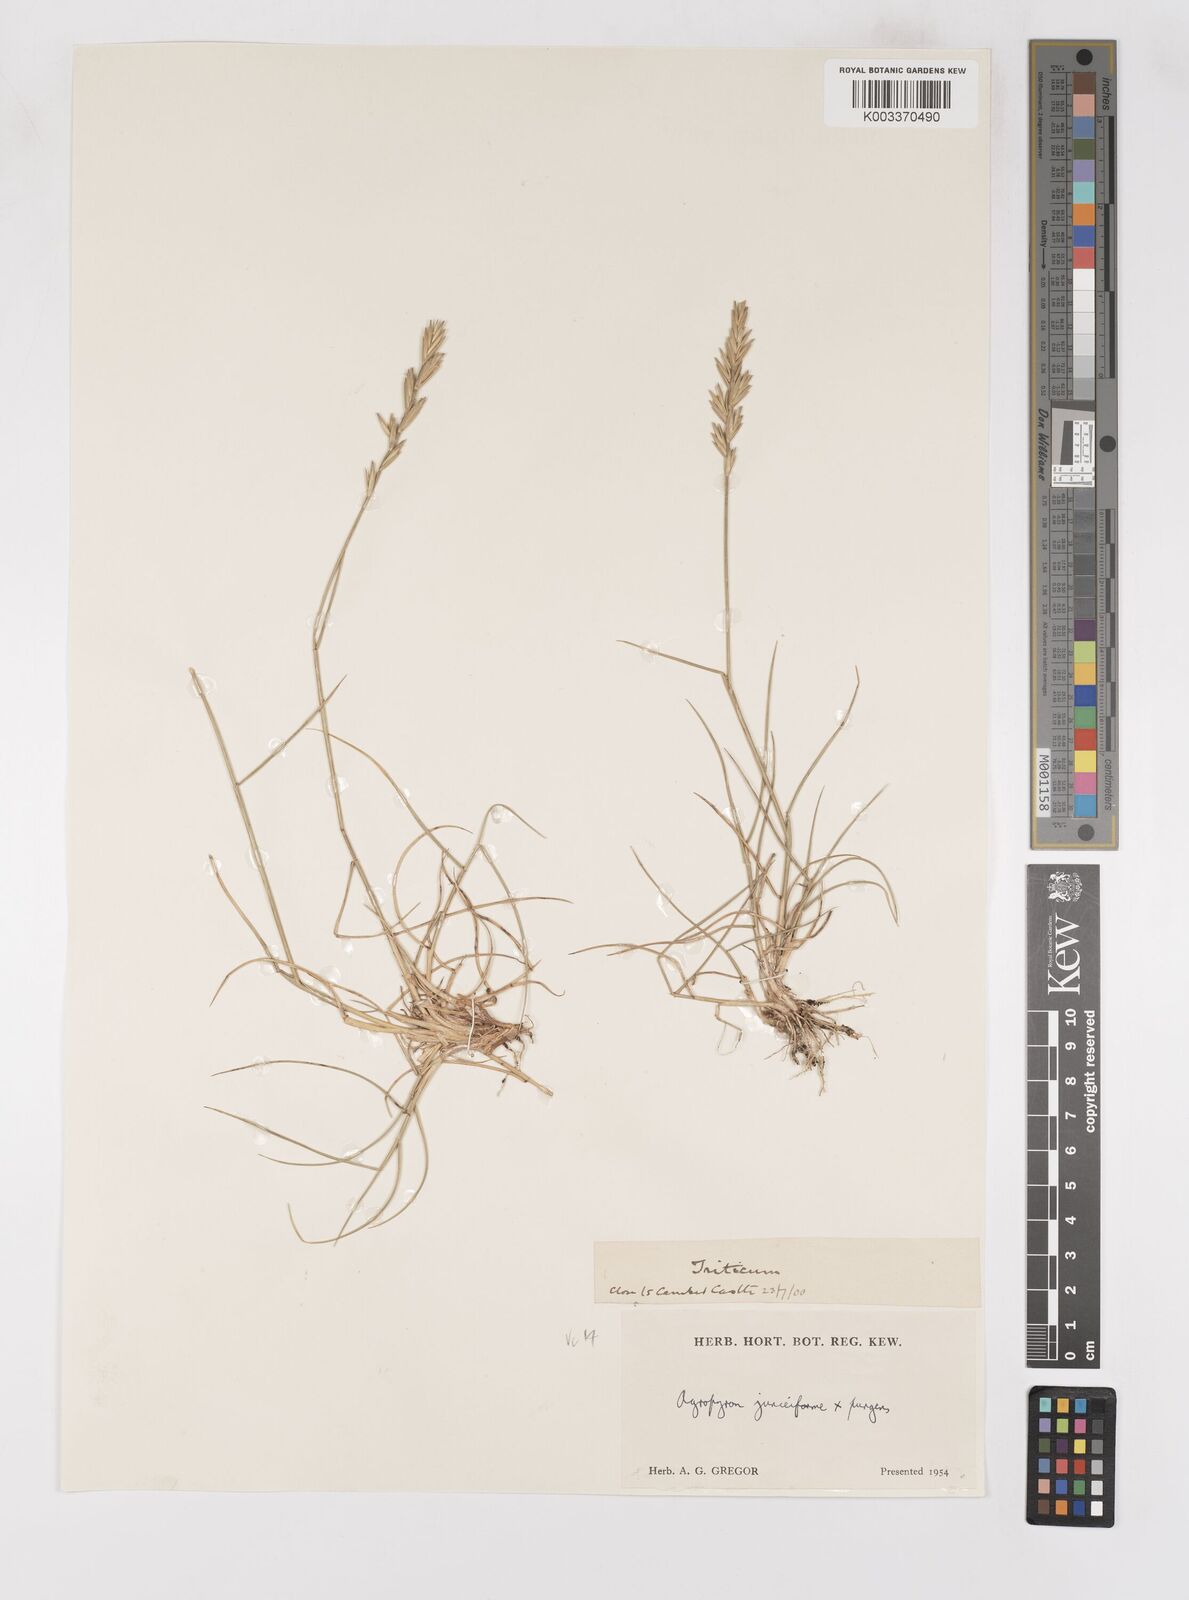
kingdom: Plantae
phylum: Tracheophyta
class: Liliopsida
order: Poales
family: Poaceae
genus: Thinoelymus
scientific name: Thinoelymus obtusiusculus
